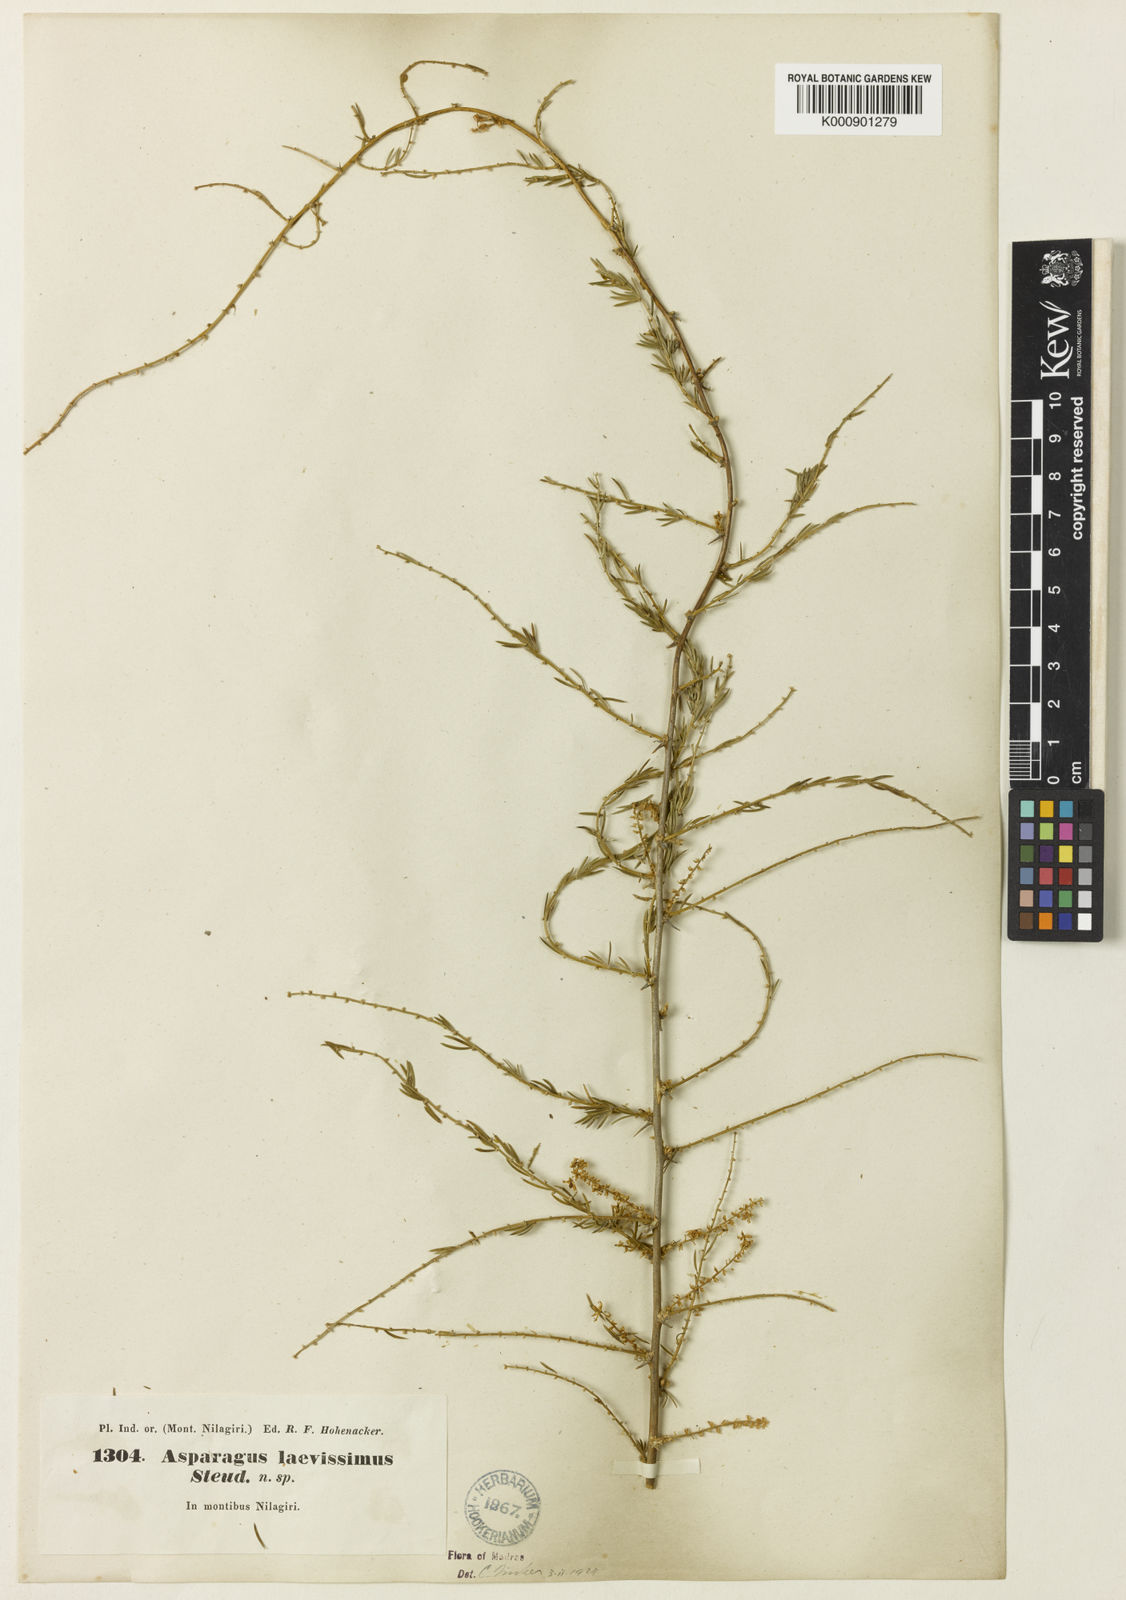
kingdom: Plantae
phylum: Tracheophyta
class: Liliopsida
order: Asparagales
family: Asparagaceae
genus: Asparagus
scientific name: Asparagus laevissimus
